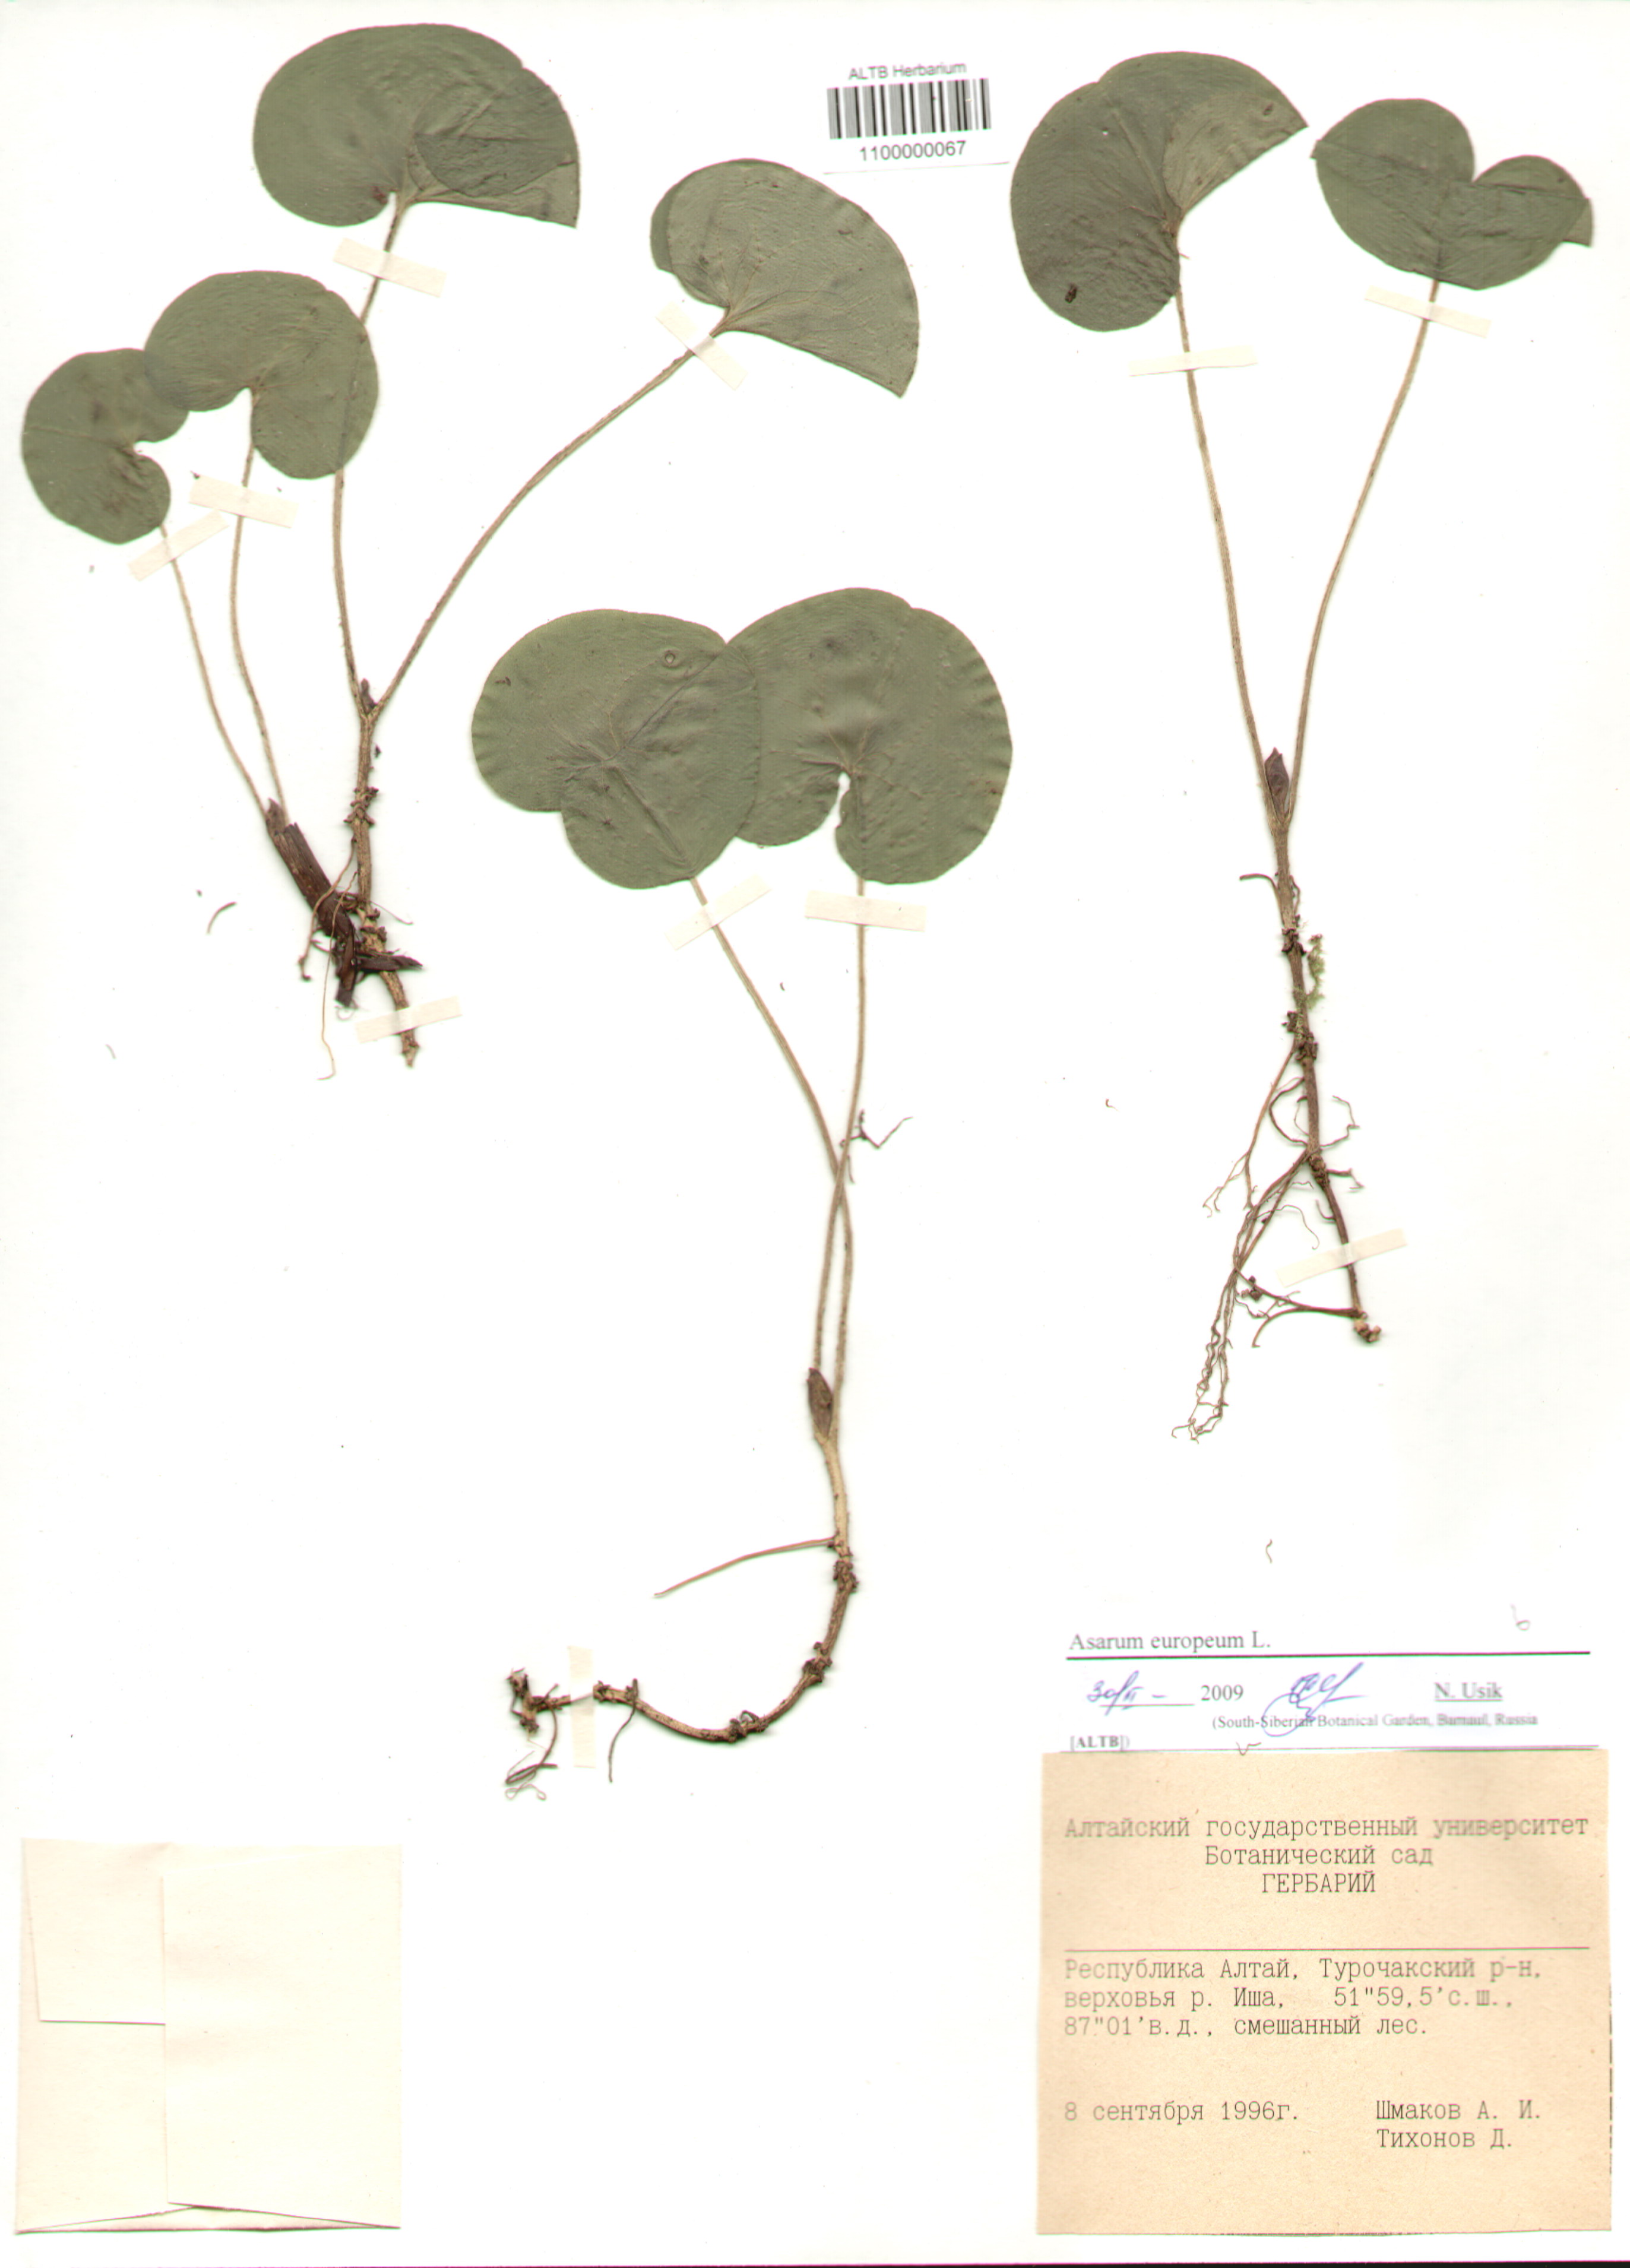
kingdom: Plantae
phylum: Tracheophyta
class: Magnoliopsida
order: Piperales
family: Aristolochiaceae
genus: Asarum
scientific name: Asarum europaeum
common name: Asarabacca
